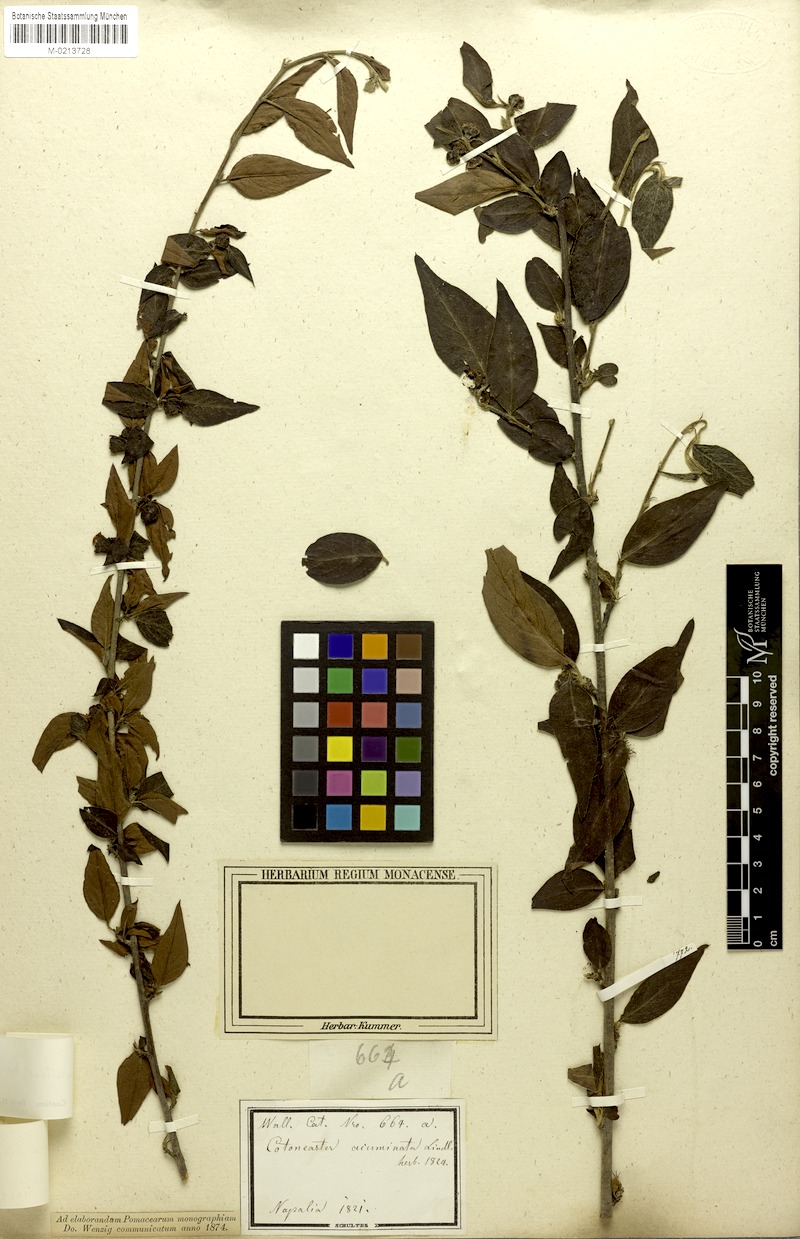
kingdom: Plantae
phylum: Tracheophyta
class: Magnoliopsida
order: Rosales
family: Rosaceae
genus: Cotoneaster
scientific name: Cotoneaster acuminatus
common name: Acuminate cotoneaster
